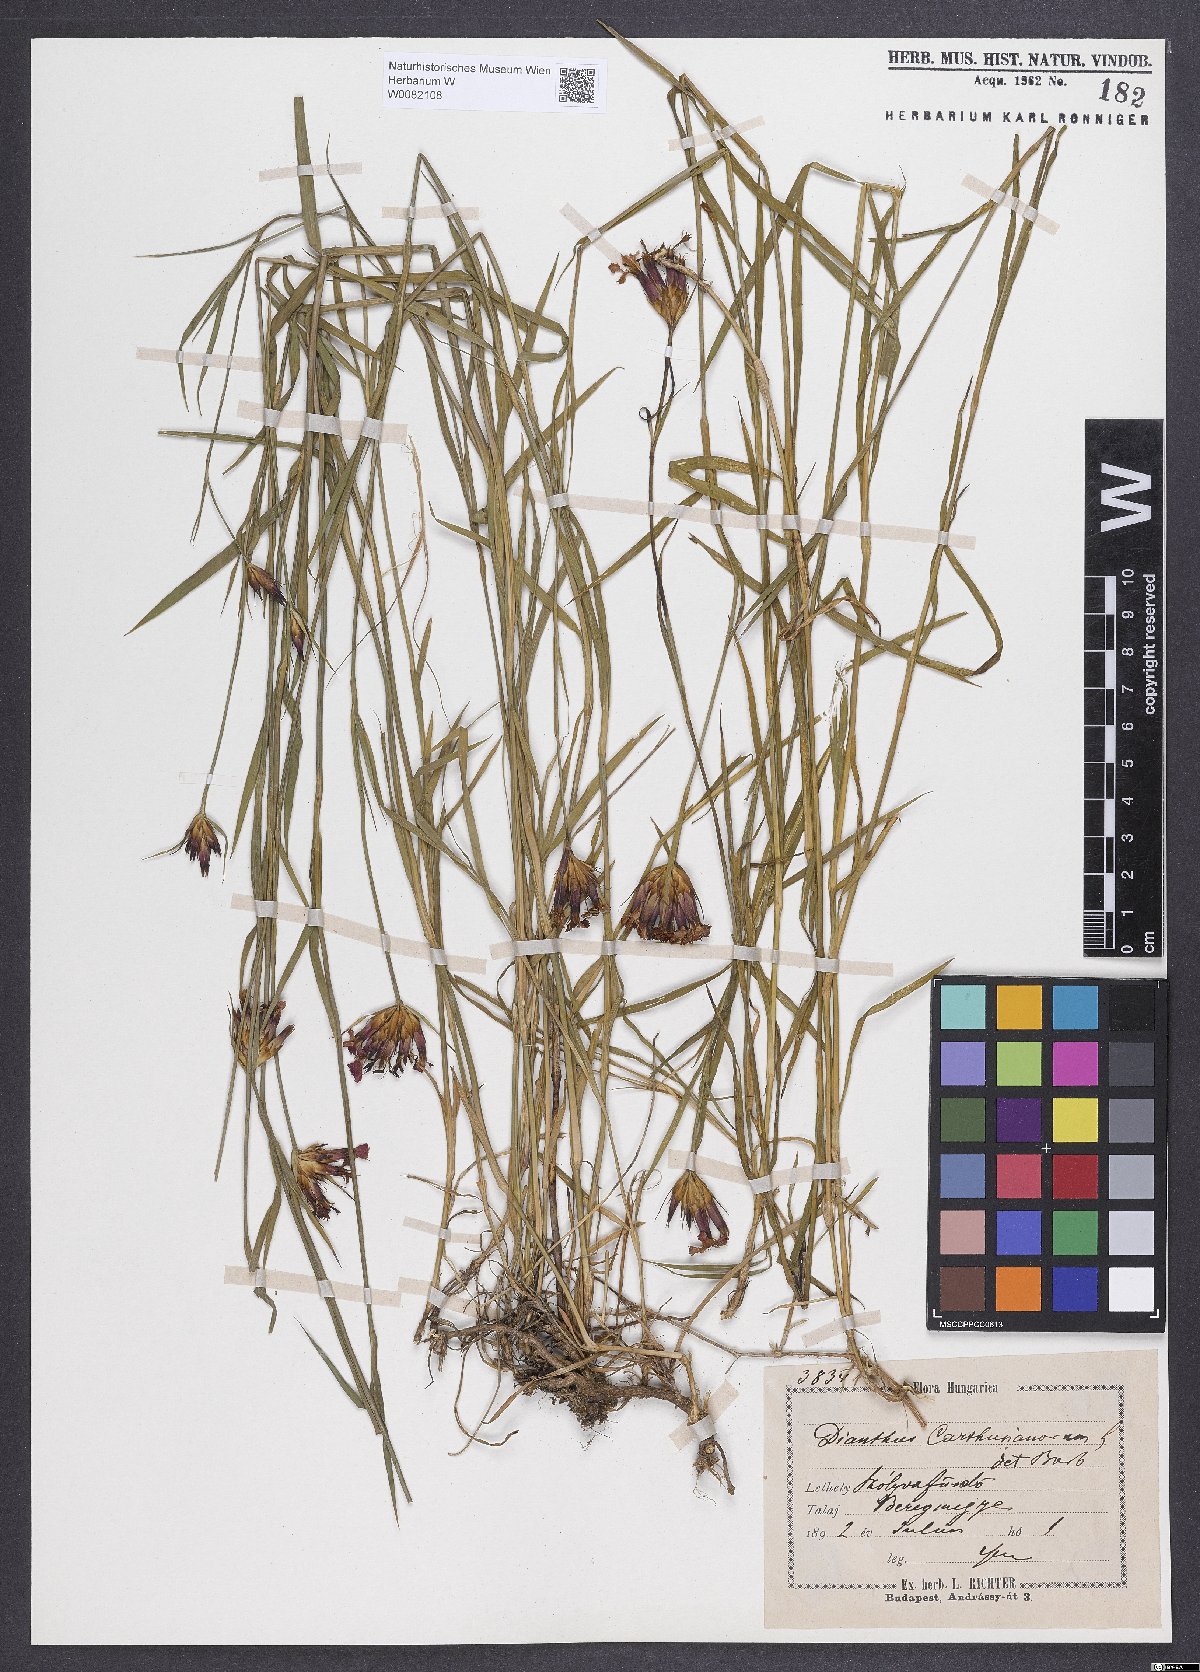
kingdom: Plantae
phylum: Tracheophyta
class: Magnoliopsida
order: Caryophyllales
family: Caryophyllaceae
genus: Dianthus
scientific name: Dianthus carthusianorum
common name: Carthusian pink
